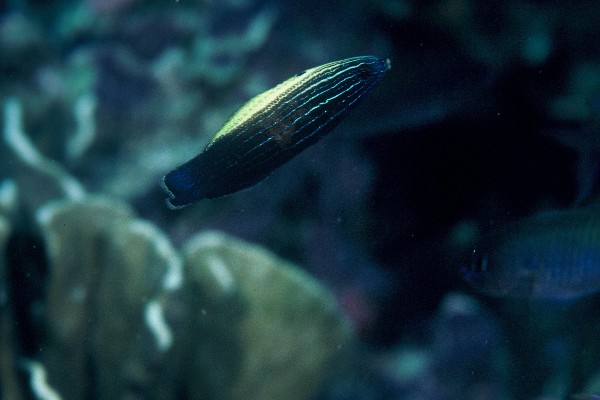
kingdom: Animalia
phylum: Chordata
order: Perciformes
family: Labridae
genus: Labropsis
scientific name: Labropsis xanthonota
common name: Blacklobe wrasse
